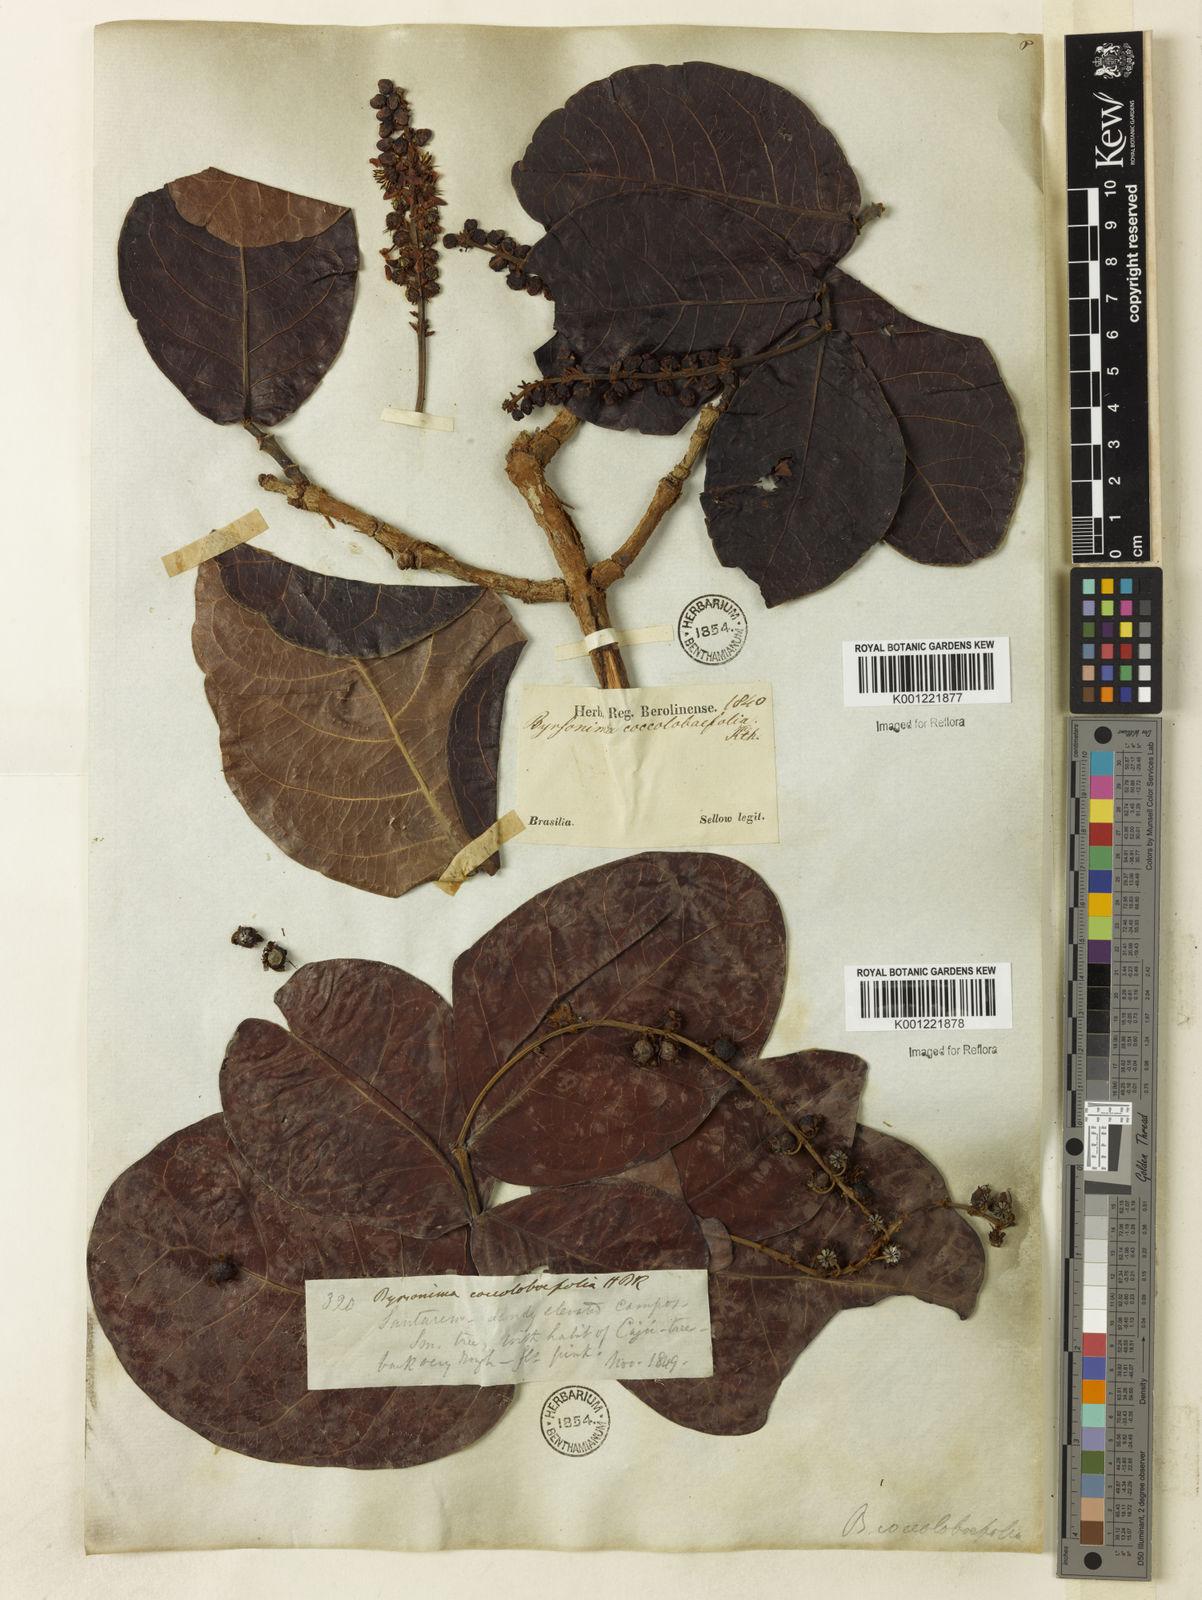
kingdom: Plantae
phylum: Tracheophyta
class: Magnoliopsida
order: Malpighiales
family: Malpighiaceae
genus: Byrsonima
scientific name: Byrsonima coccolobifolia
